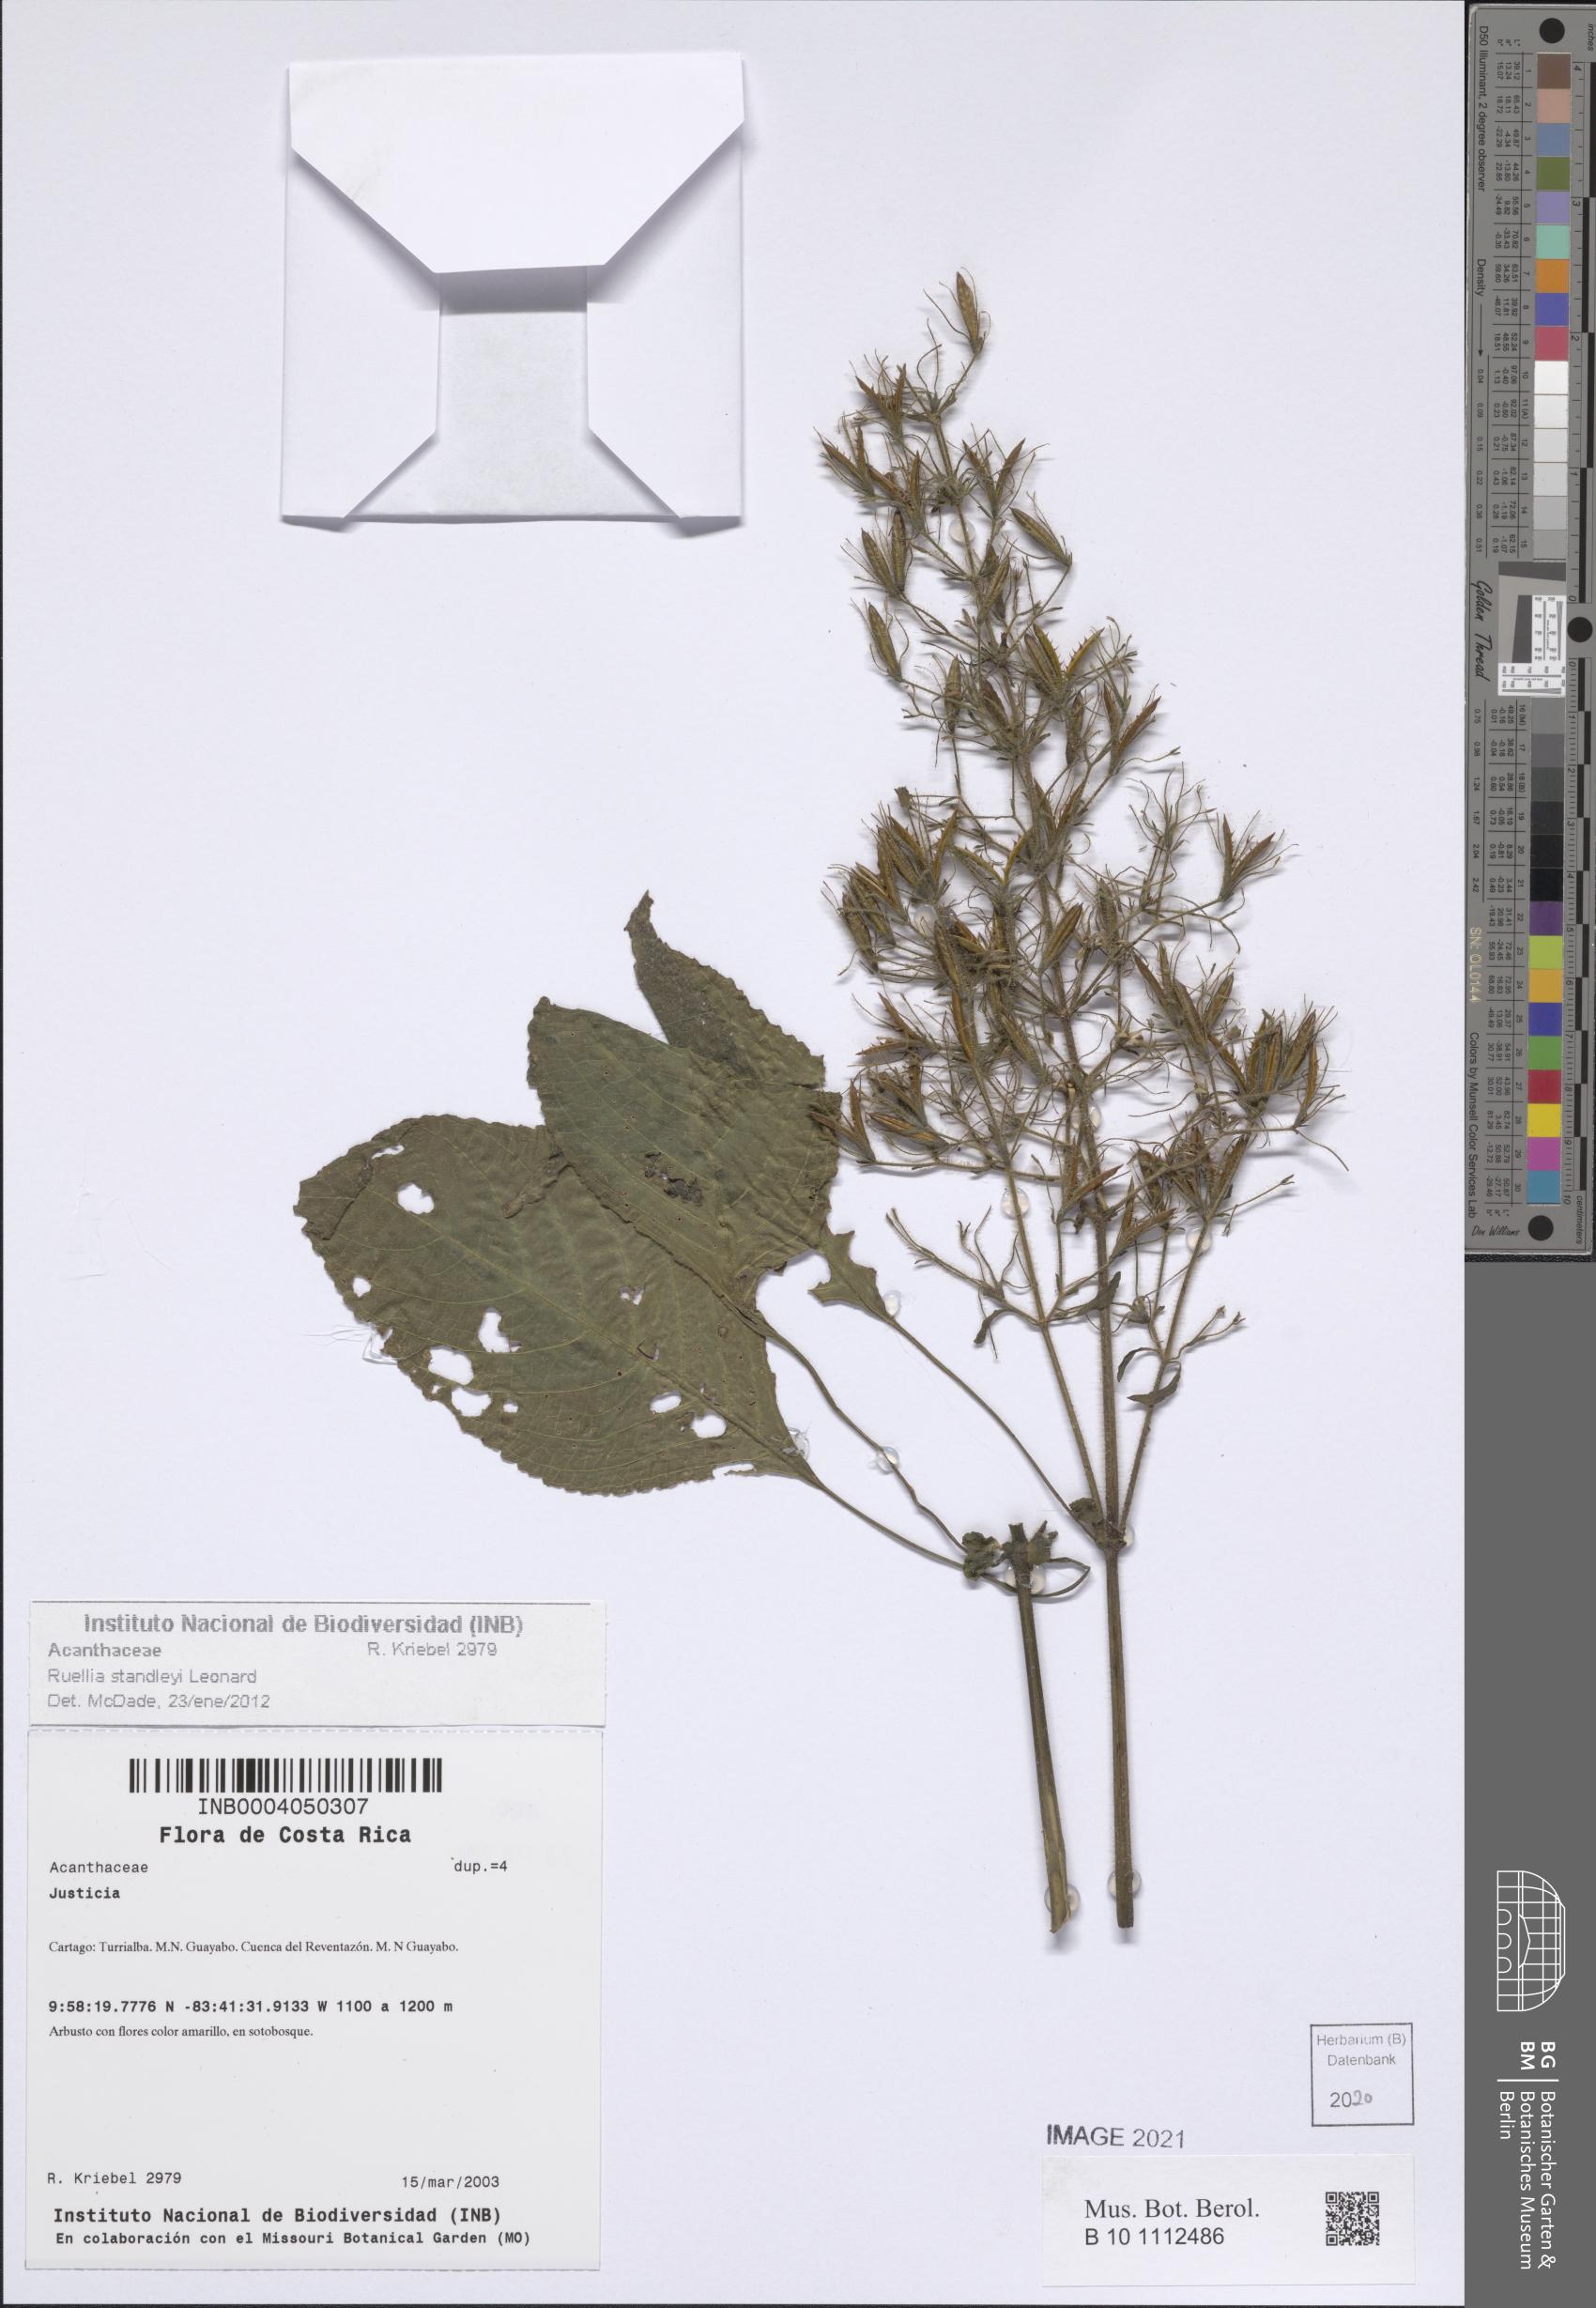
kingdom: Plantae
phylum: Tracheophyta
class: Magnoliopsida
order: Lamiales
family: Acanthaceae
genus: Ruellia
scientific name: Ruellia standleyi
